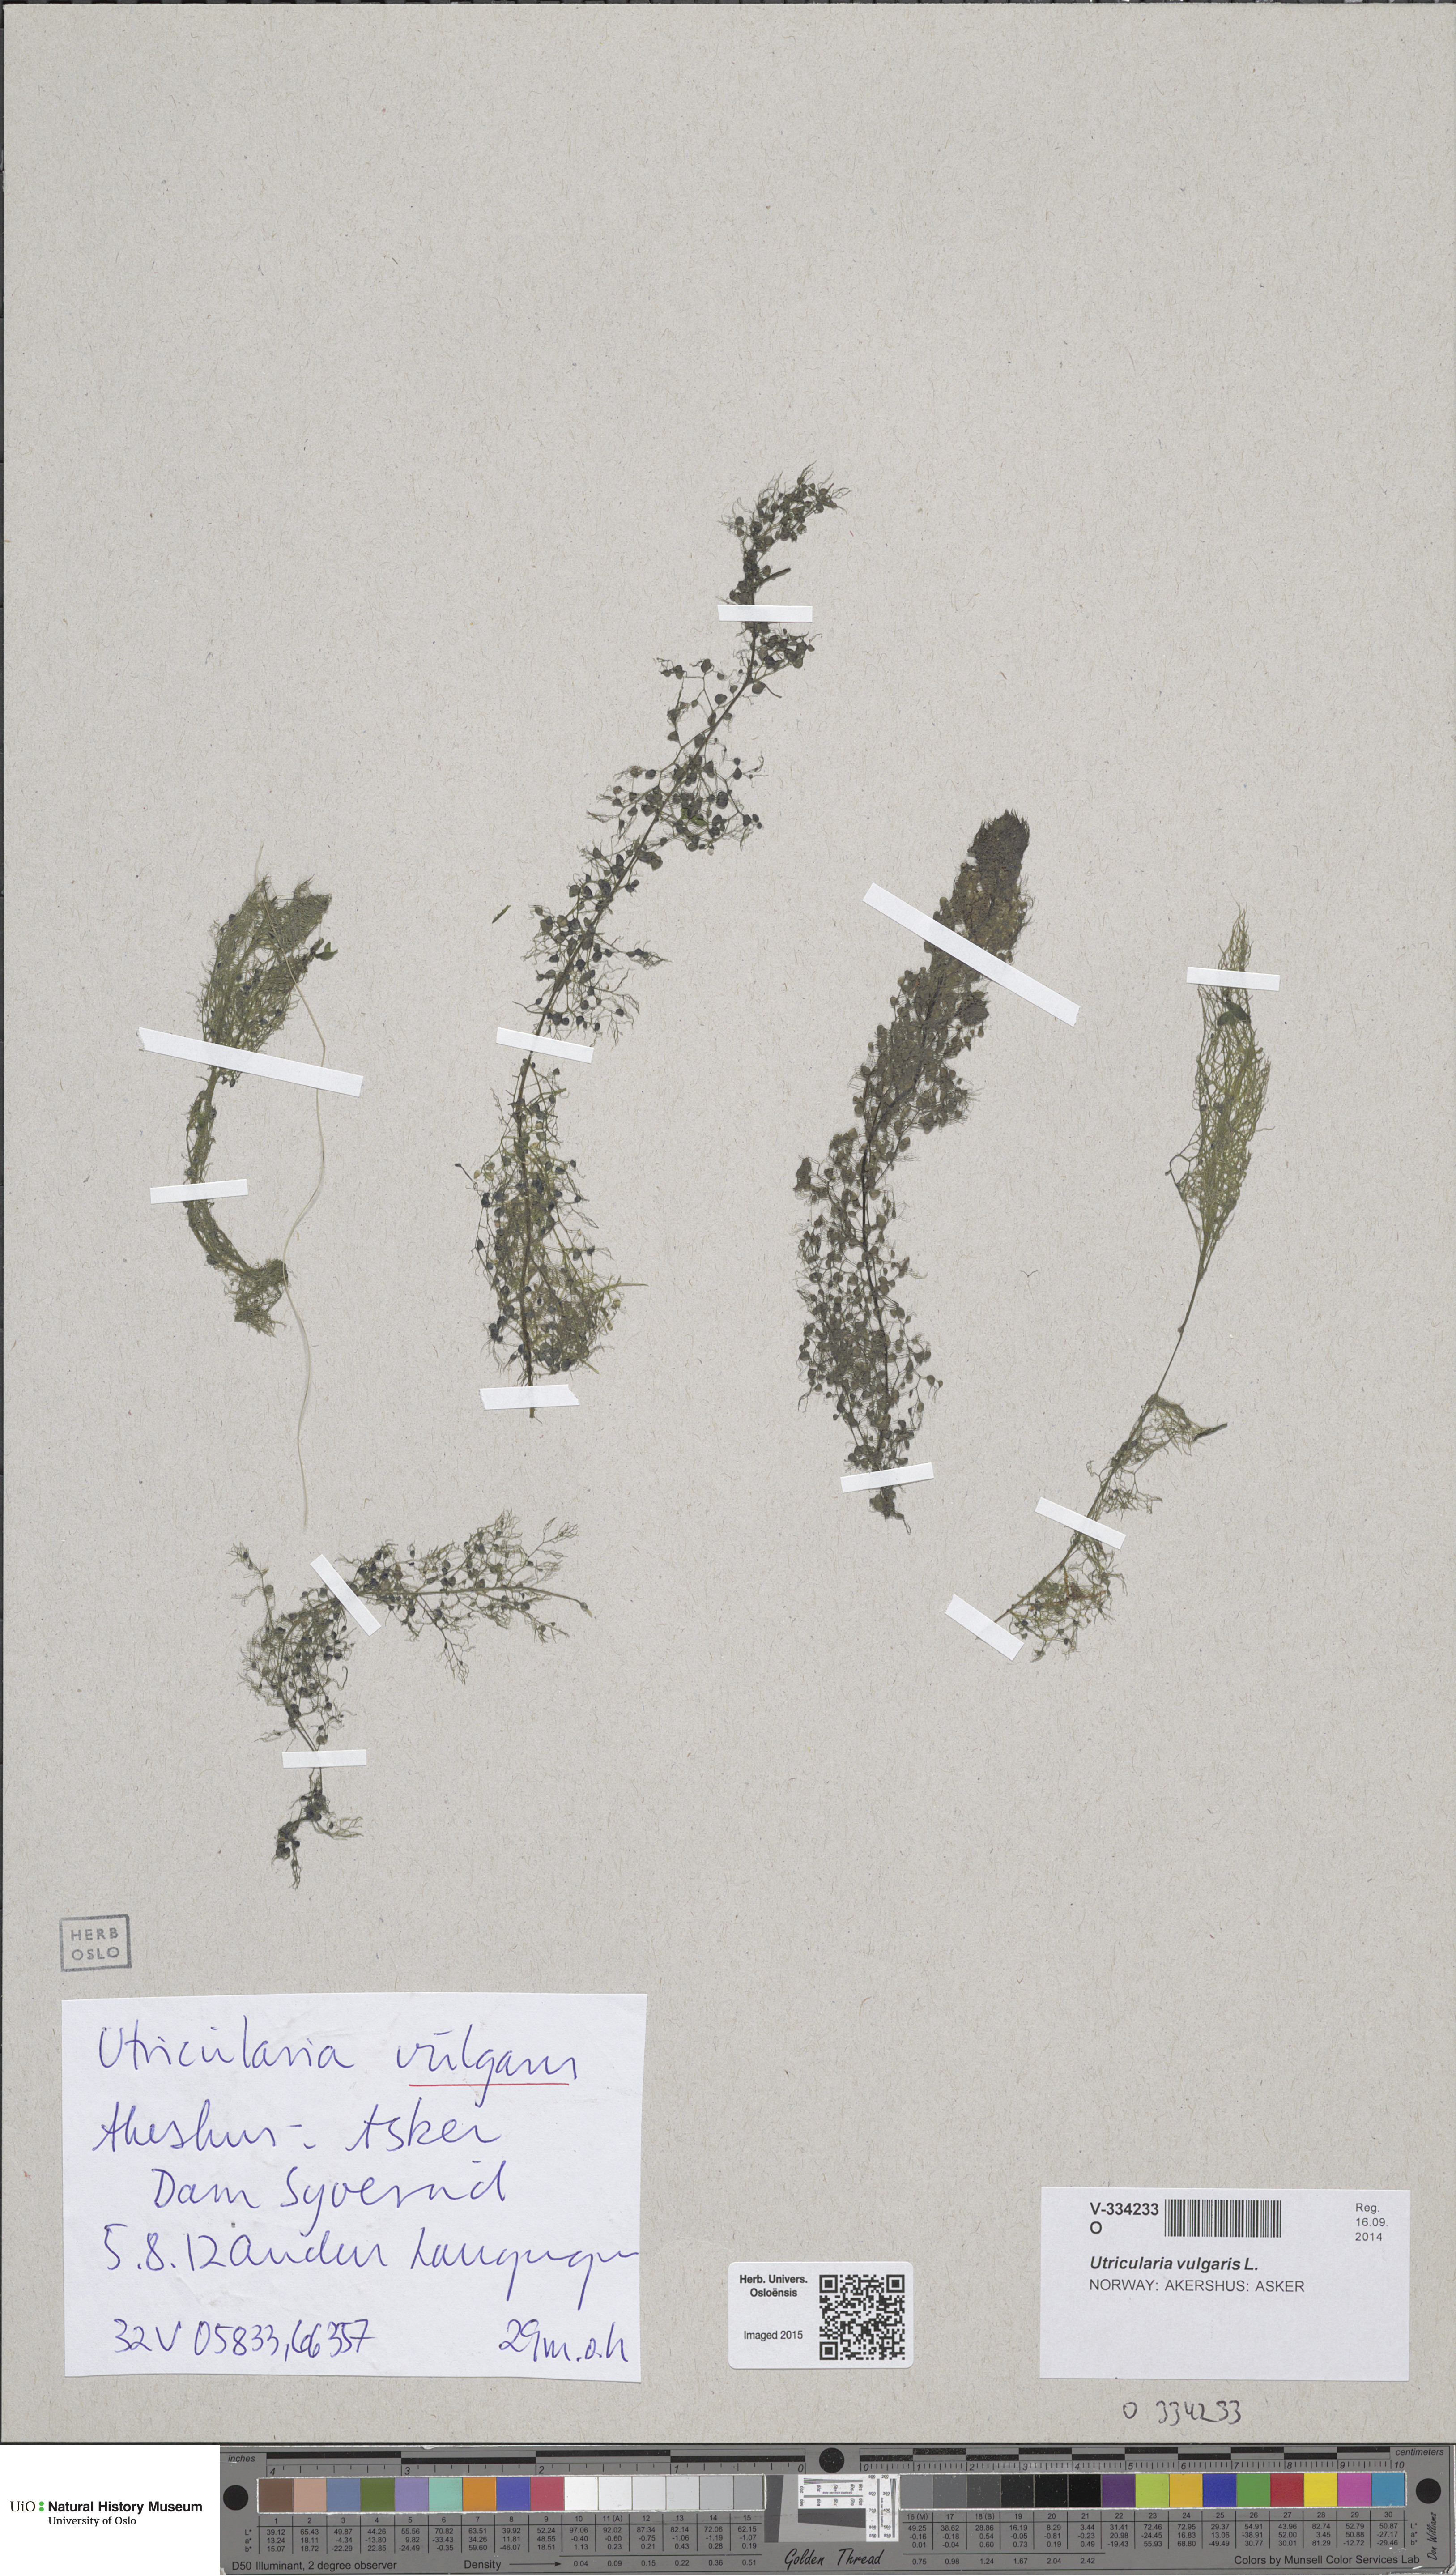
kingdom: Plantae
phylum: Tracheophyta
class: Magnoliopsida
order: Lamiales
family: Lentibulariaceae
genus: Utricularia
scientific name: Utricularia vulgaris
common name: Greater bladderwort
